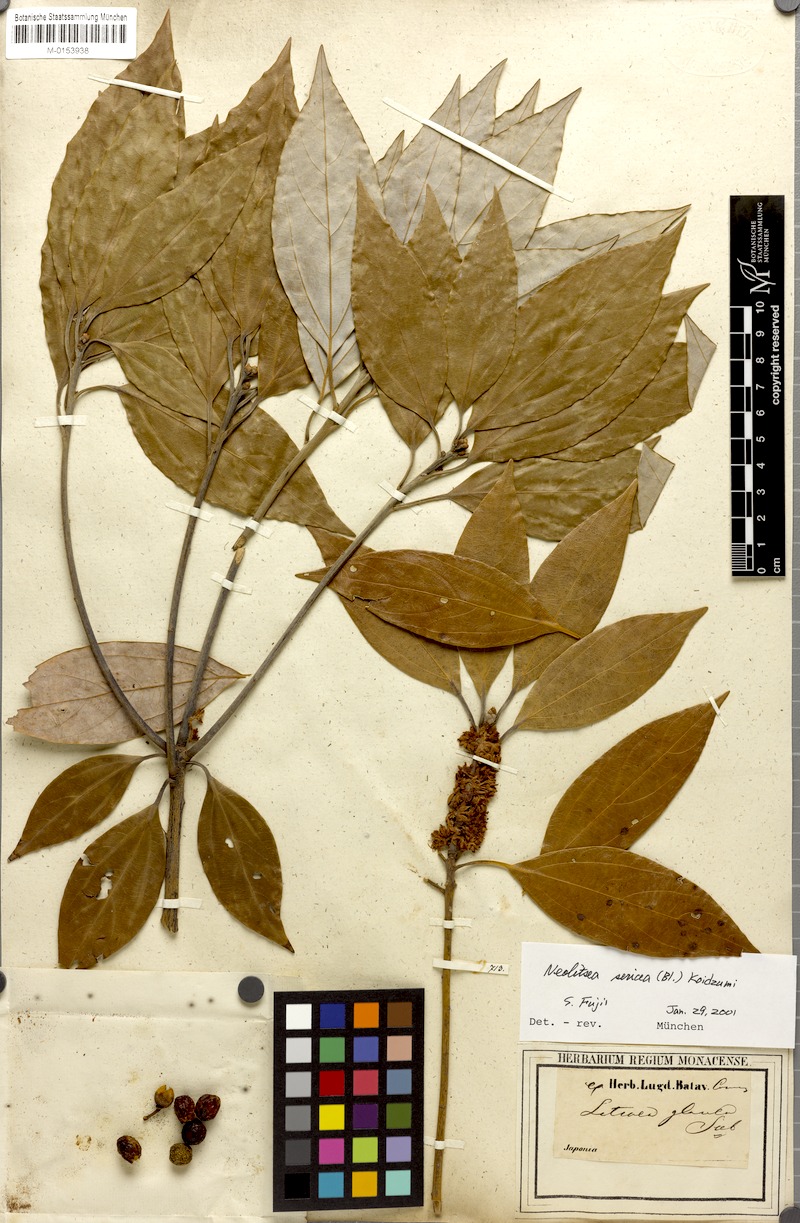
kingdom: Plantae
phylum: Tracheophyta
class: Magnoliopsida
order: Laurales
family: Lauraceae
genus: Neolitsea
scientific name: Neolitsea sericea
